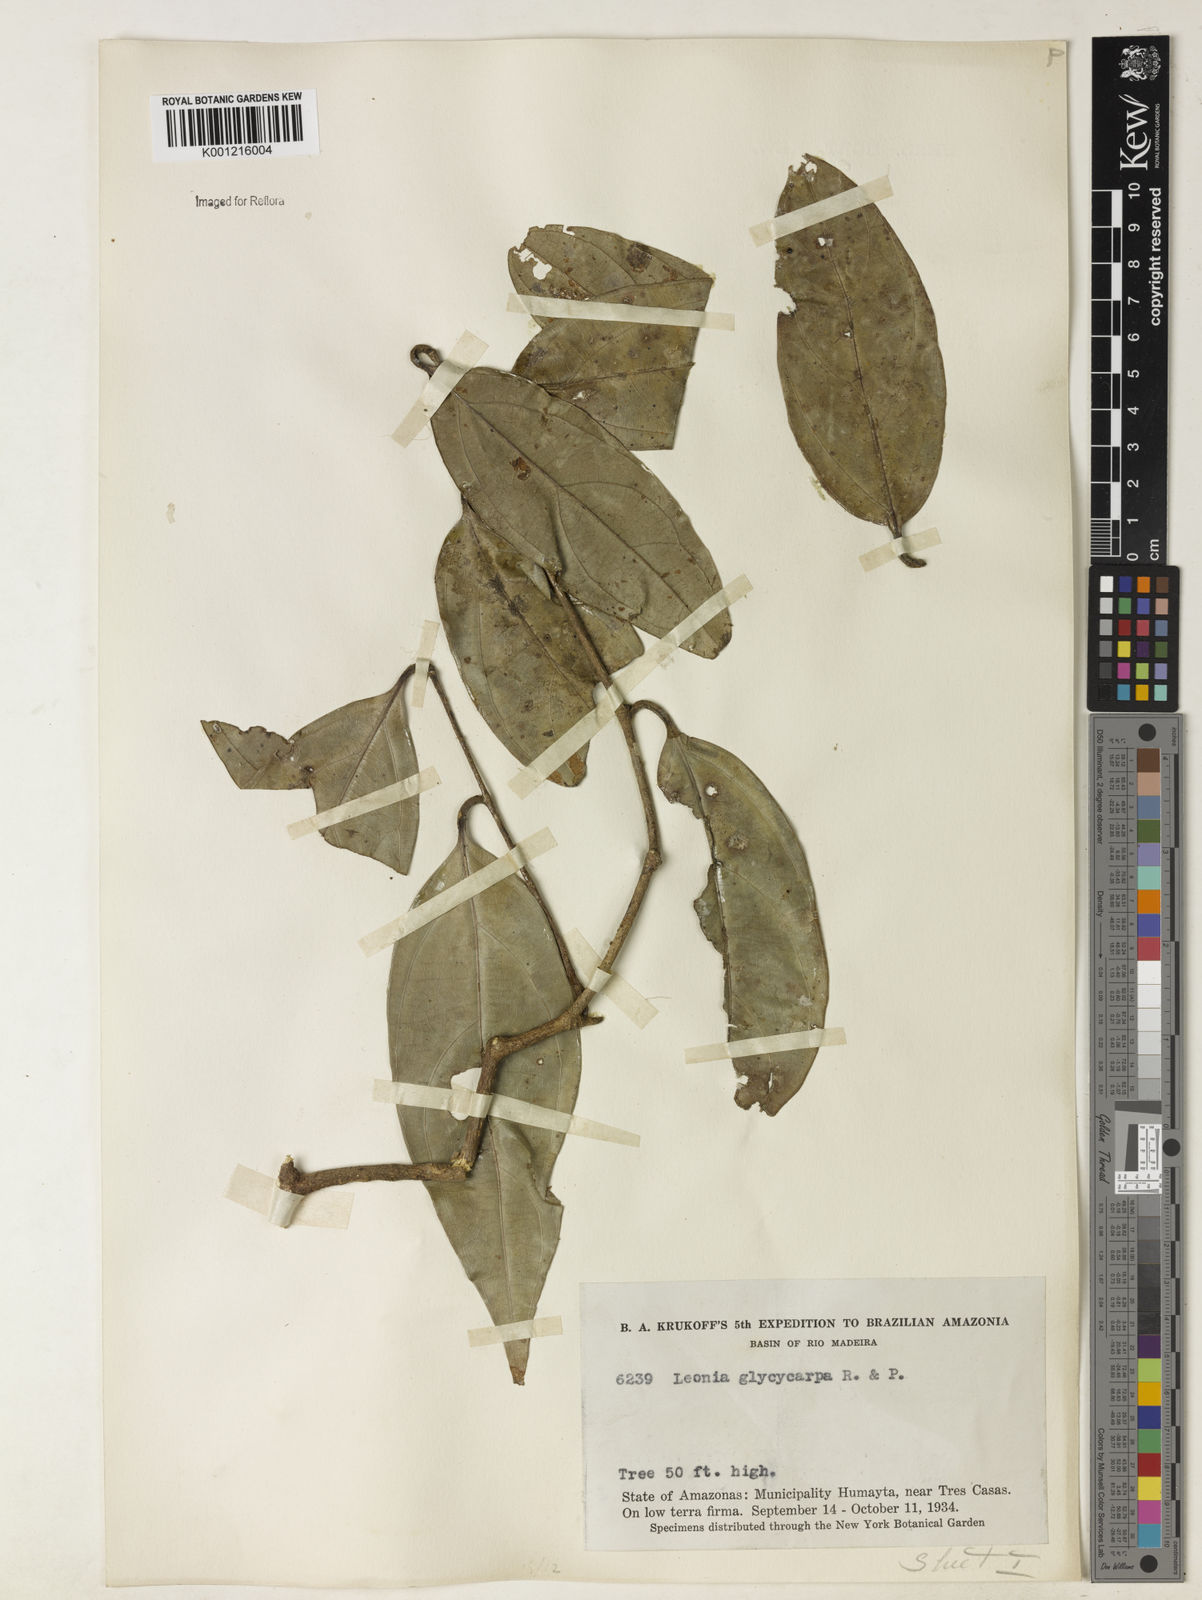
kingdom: Plantae
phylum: Tracheophyta
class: Magnoliopsida
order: Malpighiales
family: Violaceae
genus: Leonia
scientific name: Leonia glycycarpa
